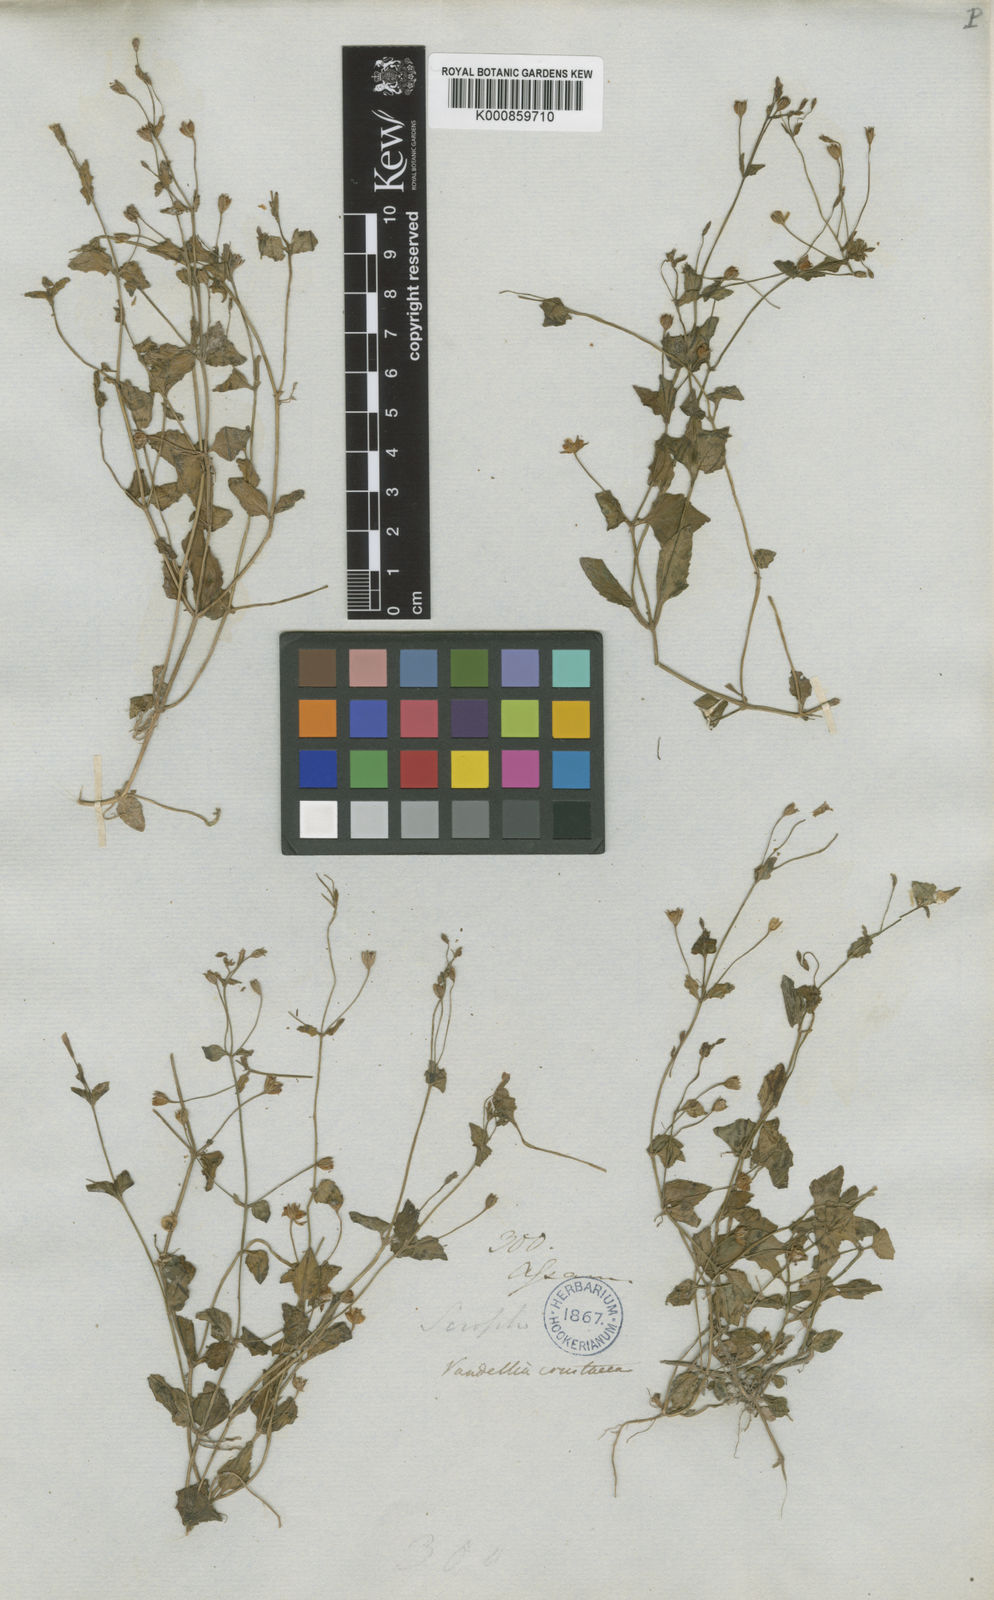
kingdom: Plantae
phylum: Tracheophyta
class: Magnoliopsida
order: Lamiales
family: Linderniaceae
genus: Torenia
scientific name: Torenia crustacea
